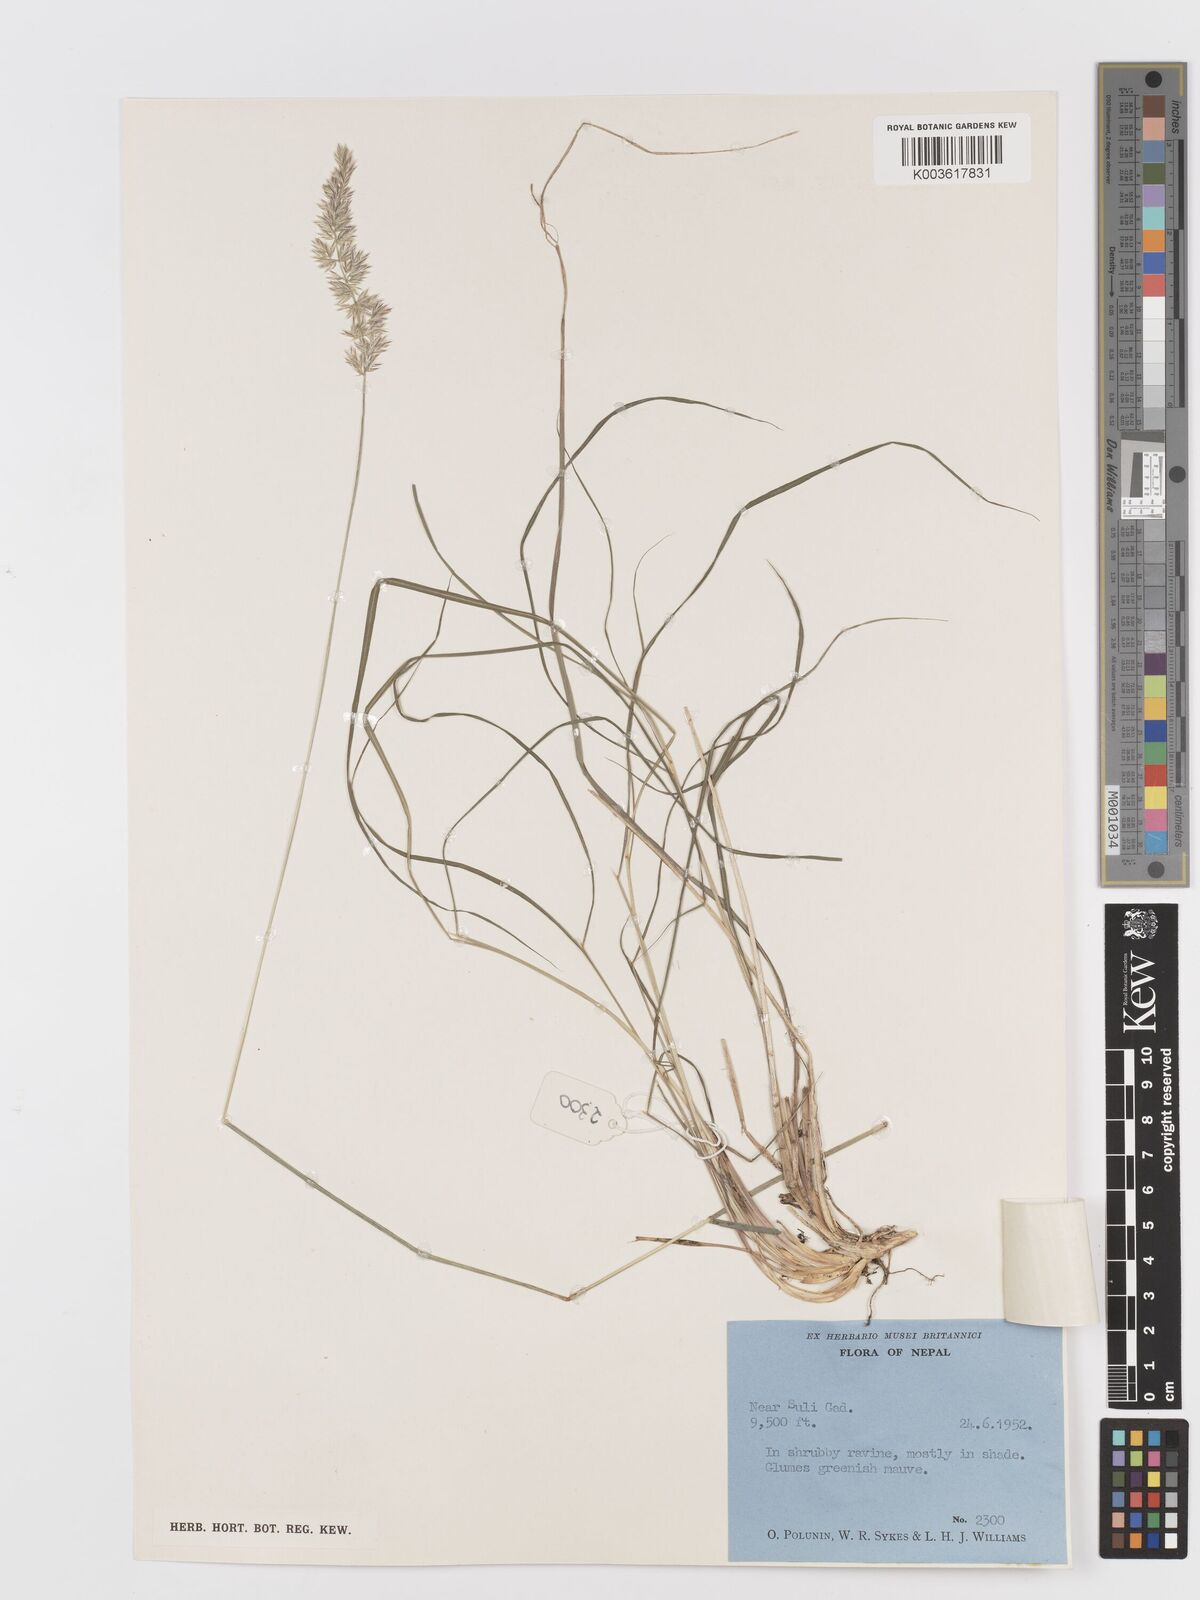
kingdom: Plantae
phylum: Tracheophyta
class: Liliopsida
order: Poales
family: Poaceae
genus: Koeleria
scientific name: Koeleria macrantha
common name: Crested hair-grass
